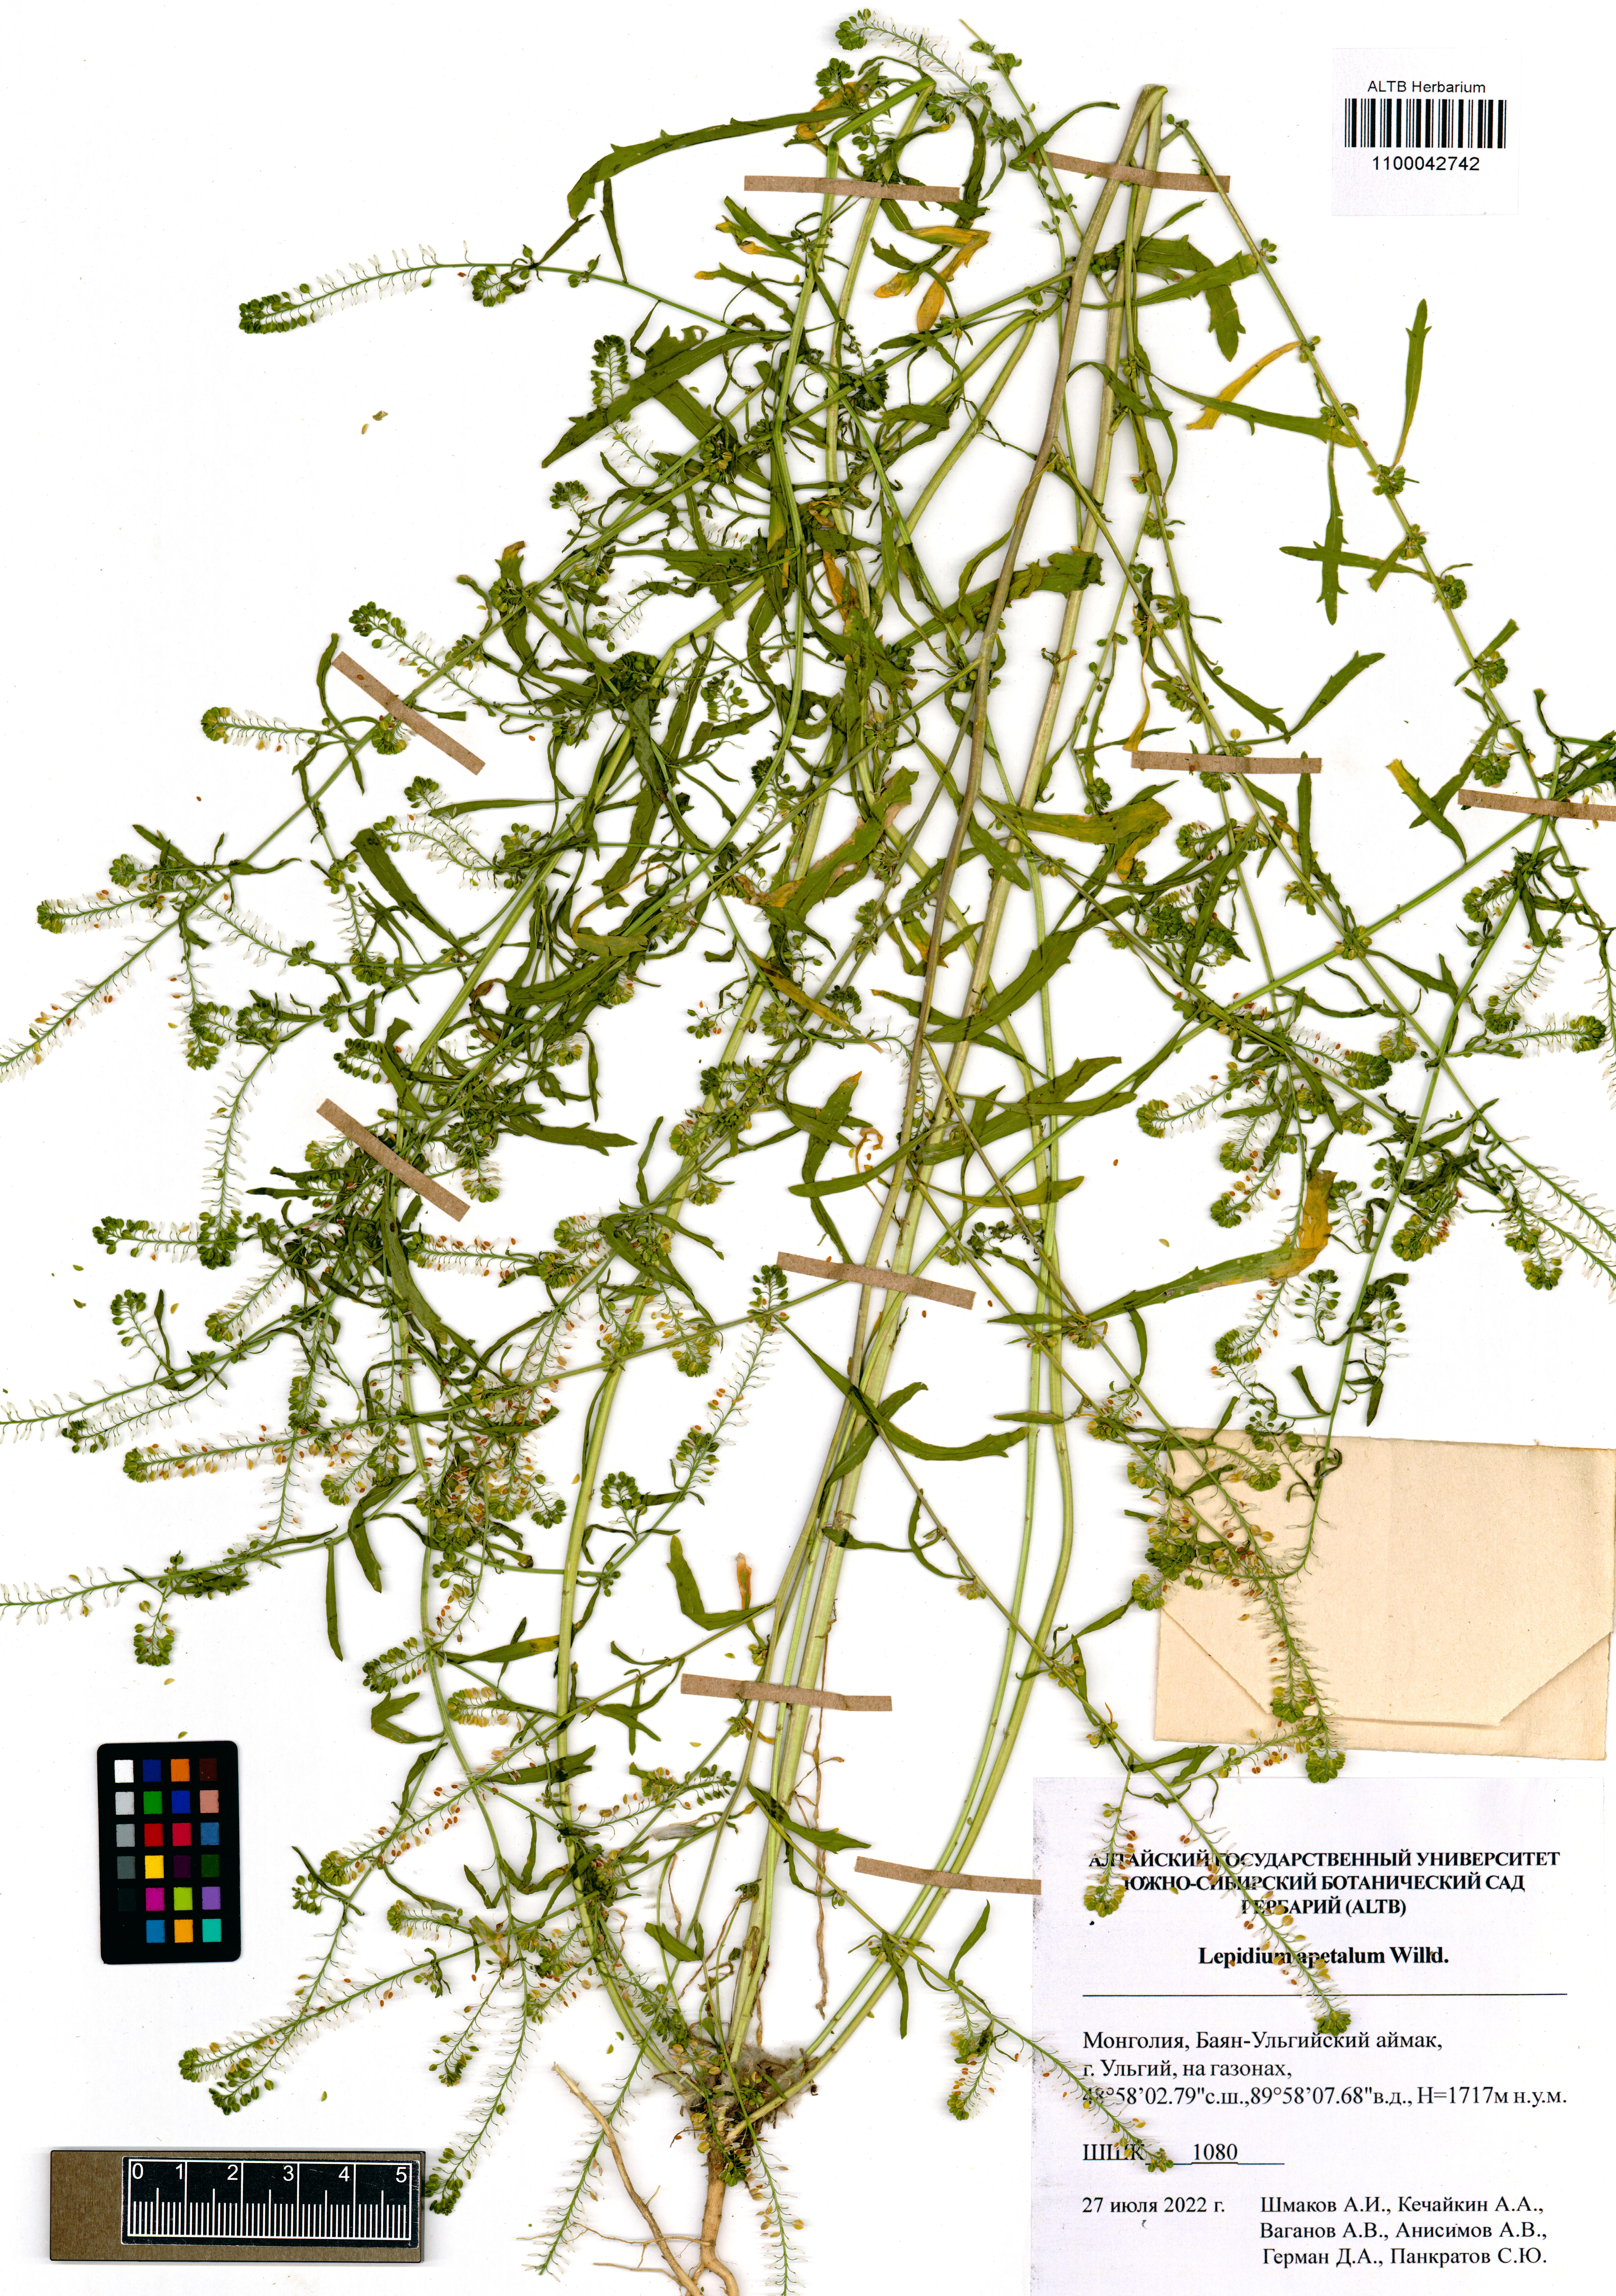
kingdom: Plantae
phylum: Tracheophyta
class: Magnoliopsida
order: Brassicales
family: Brassicaceae
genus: Lepidium
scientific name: Lepidium apetalum
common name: Pepperweed
